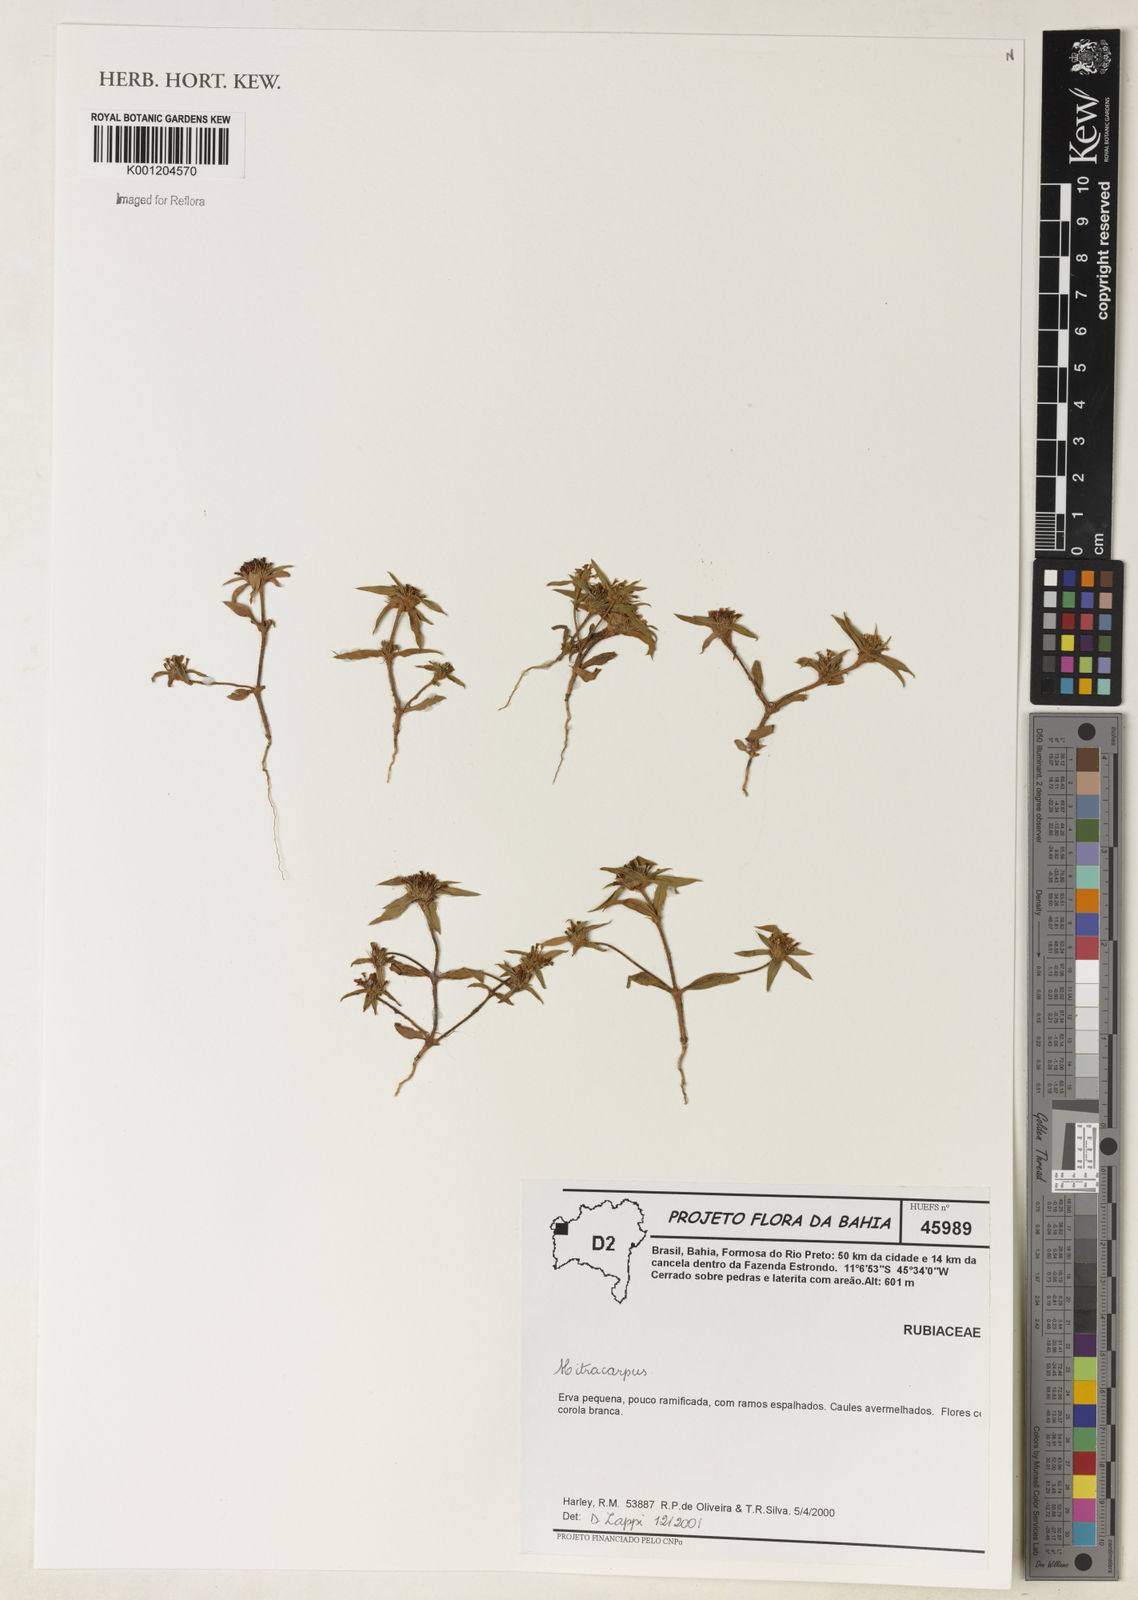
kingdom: Plantae
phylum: Tracheophyta
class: Magnoliopsida
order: Gentianales
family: Rubiaceae
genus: Mitracarpus
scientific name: Mitracarpus
